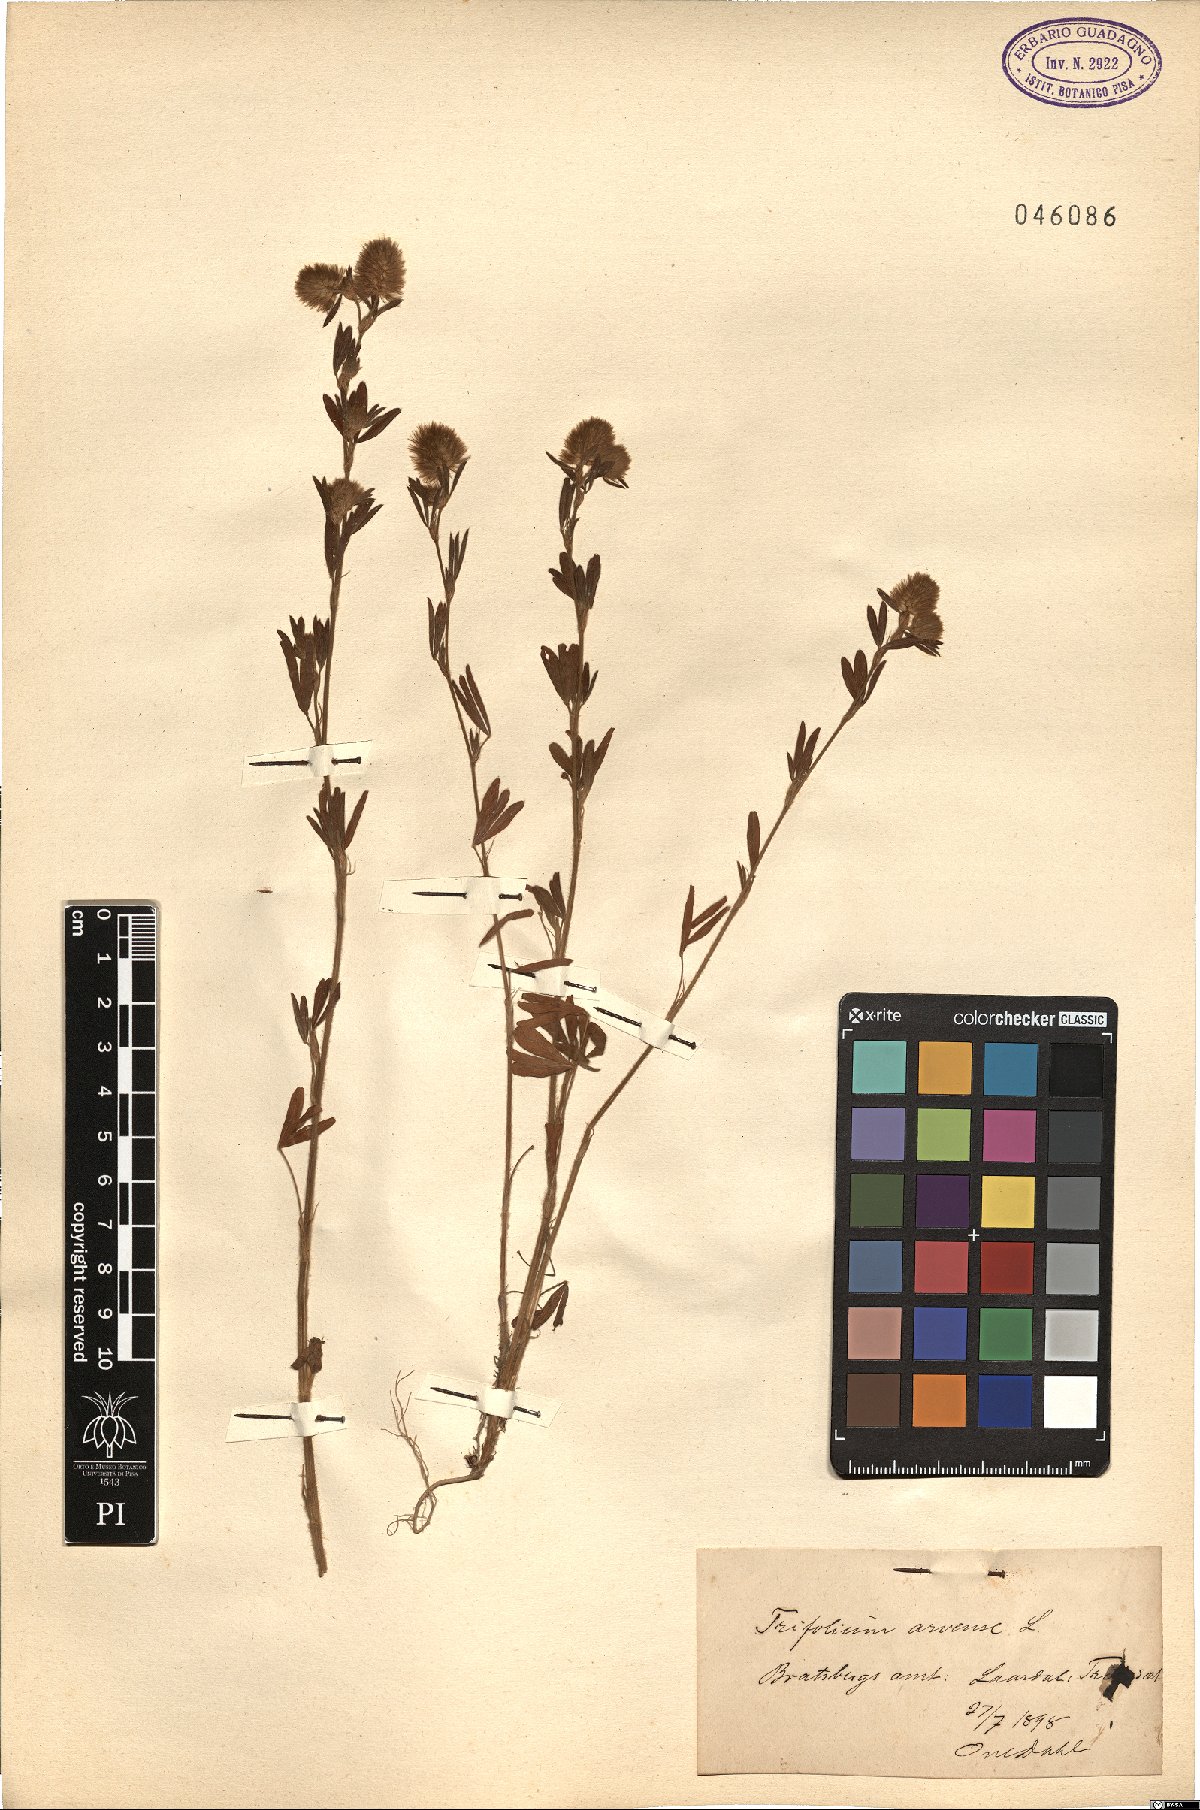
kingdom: Plantae
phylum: Tracheophyta
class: Magnoliopsida
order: Fabales
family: Fabaceae
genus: Trifolium
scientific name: Trifolium arvense
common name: Hare's-foot clover
